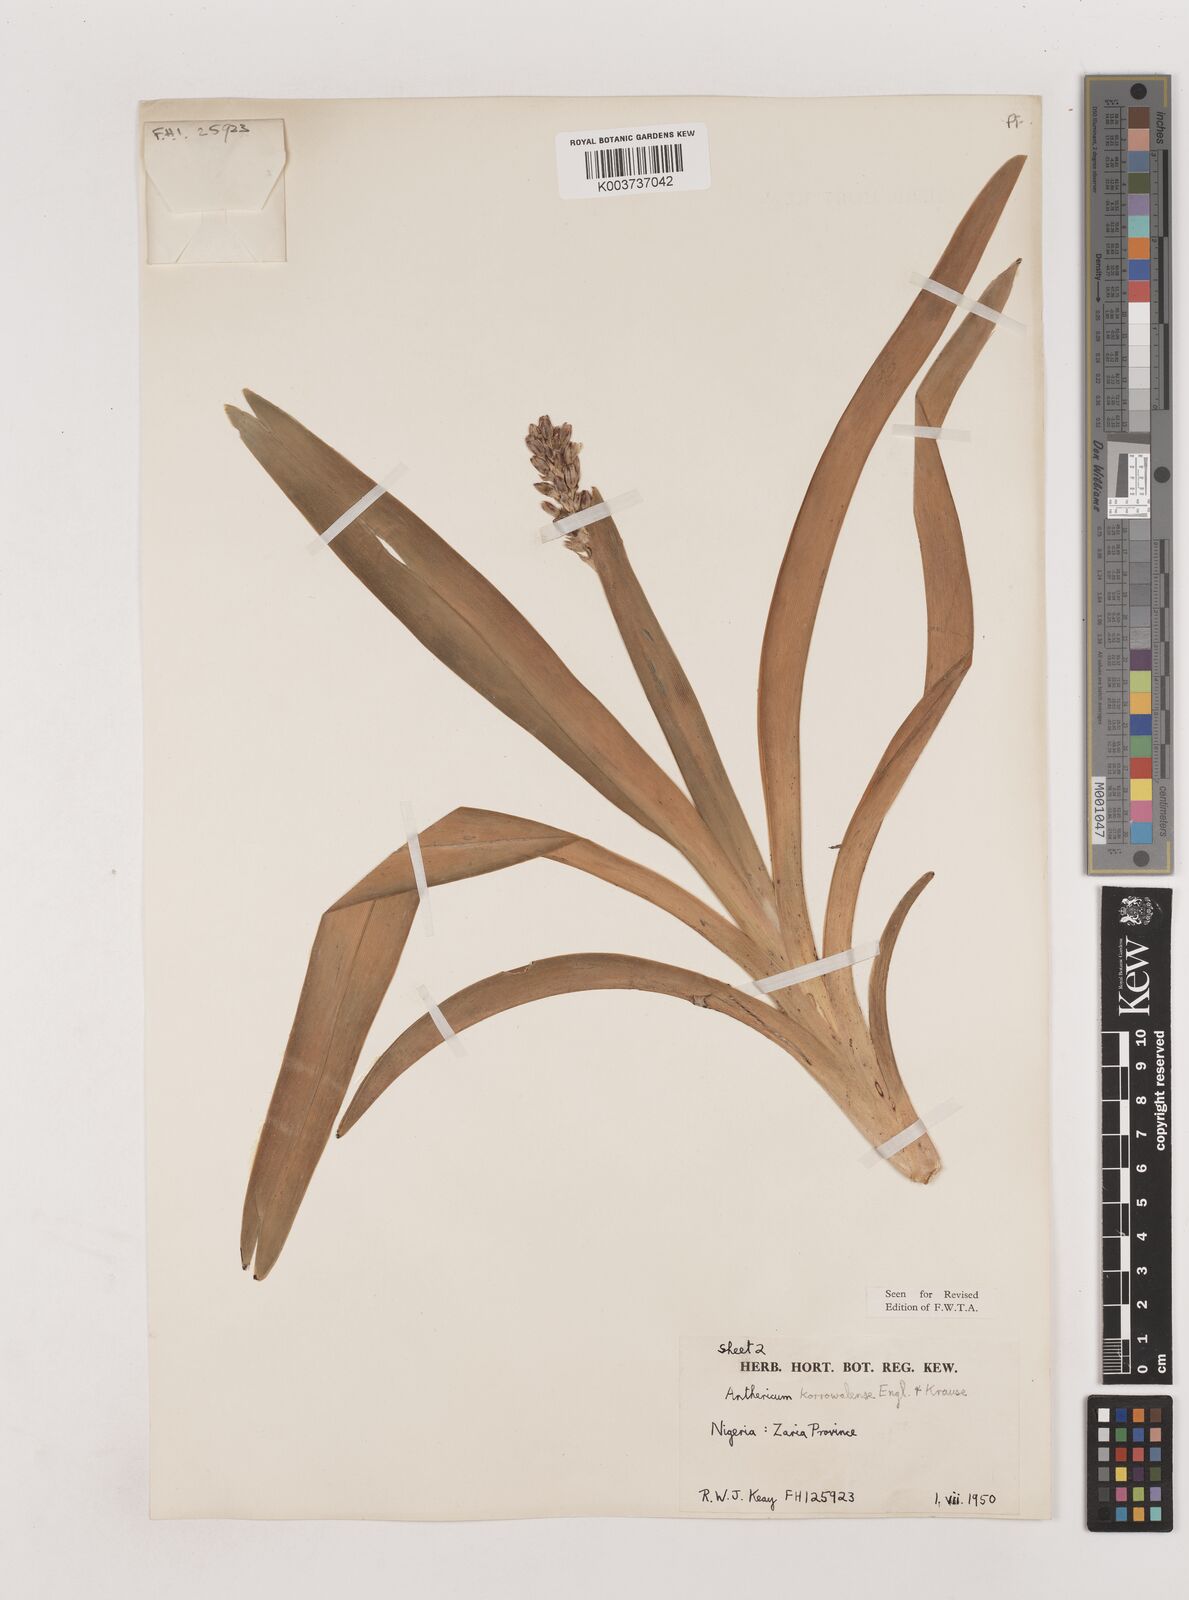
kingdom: Plantae
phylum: Tracheophyta
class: Liliopsida
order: Asparagales
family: Asparagaceae
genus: Chlorophytum
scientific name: Chlorophytum cameronii
